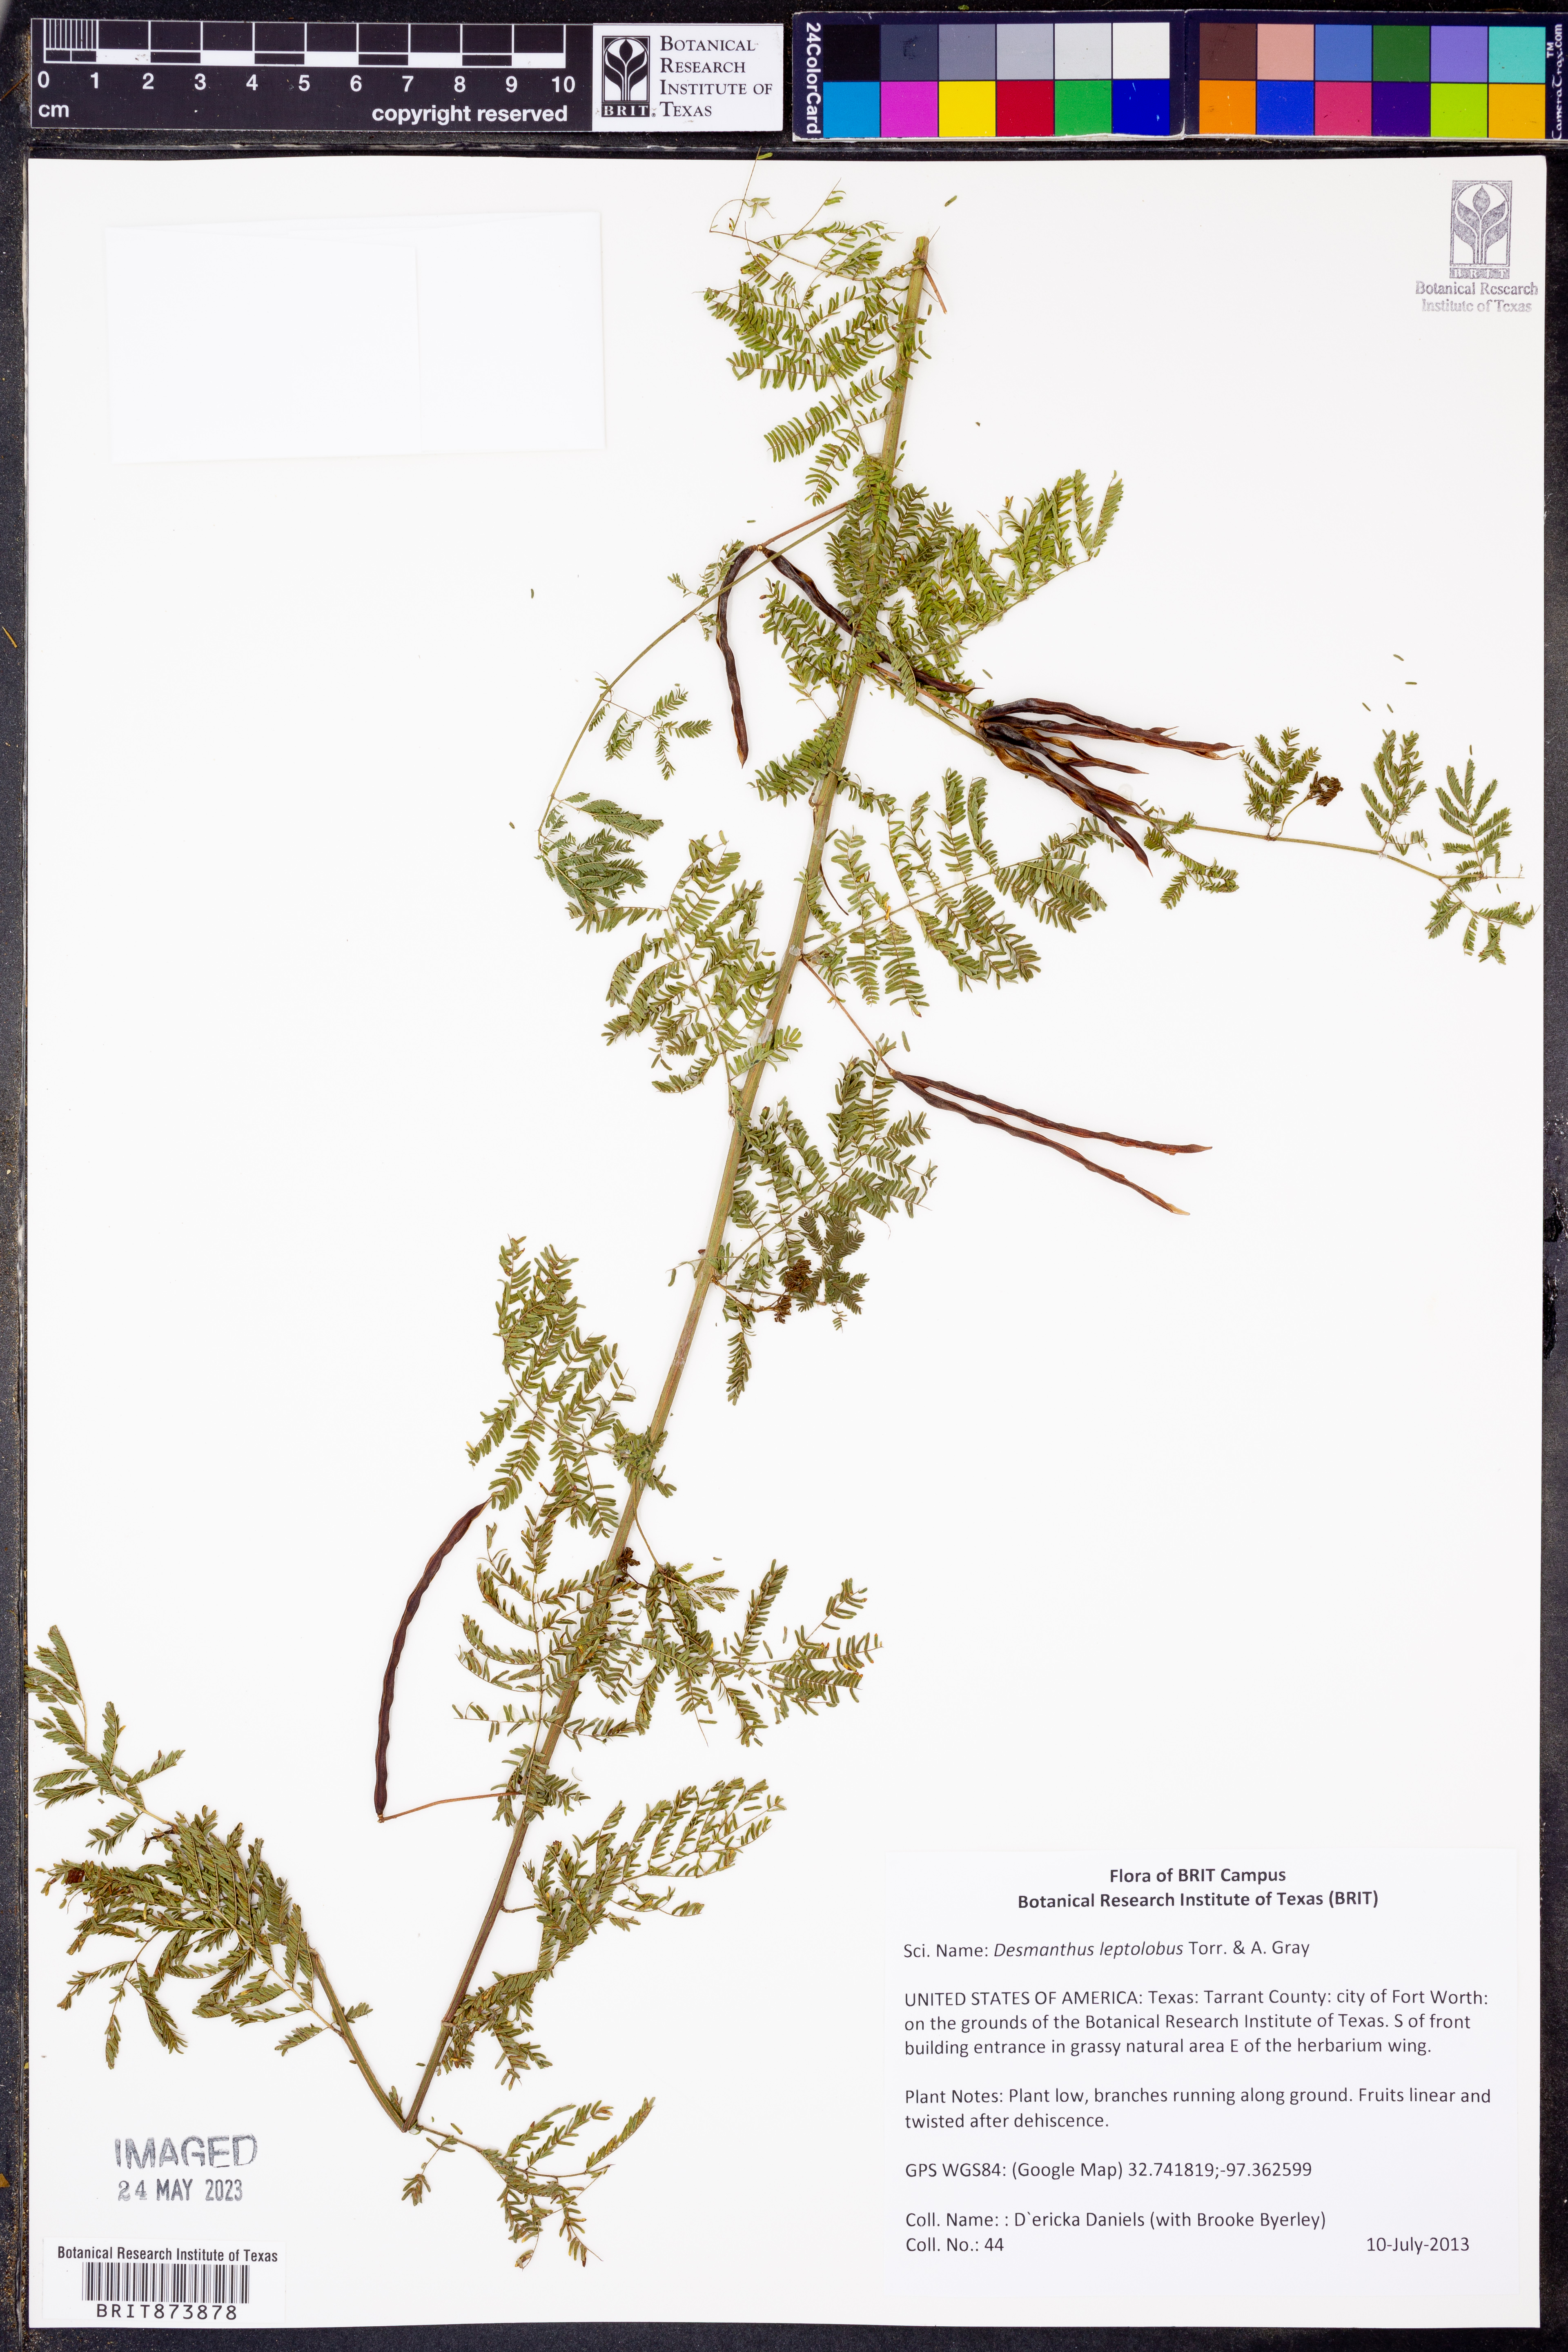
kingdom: Plantae
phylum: Tracheophyta
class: Magnoliopsida
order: Fabales
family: Fabaceae
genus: Desmanthus
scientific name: Desmanthus leptolobus
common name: Prairie-mimosa
